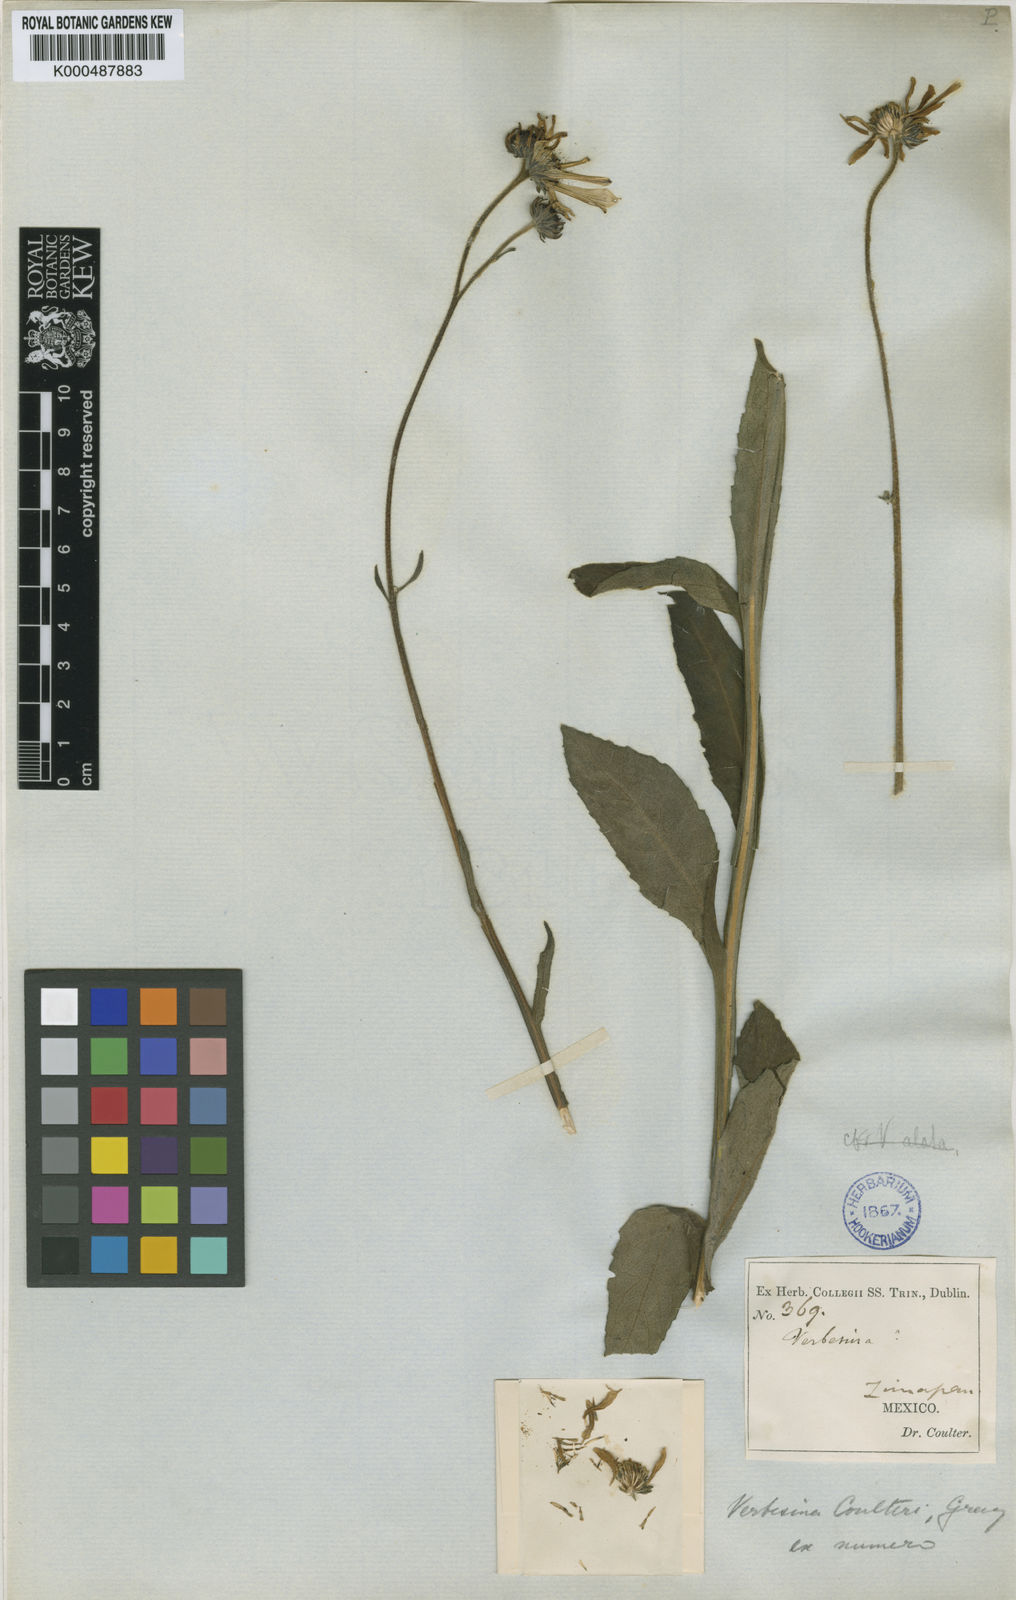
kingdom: Plantae
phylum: Tracheophyta
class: Magnoliopsida
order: Asterales
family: Asteraceae
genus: Verbesina
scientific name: Verbesina coulteri
